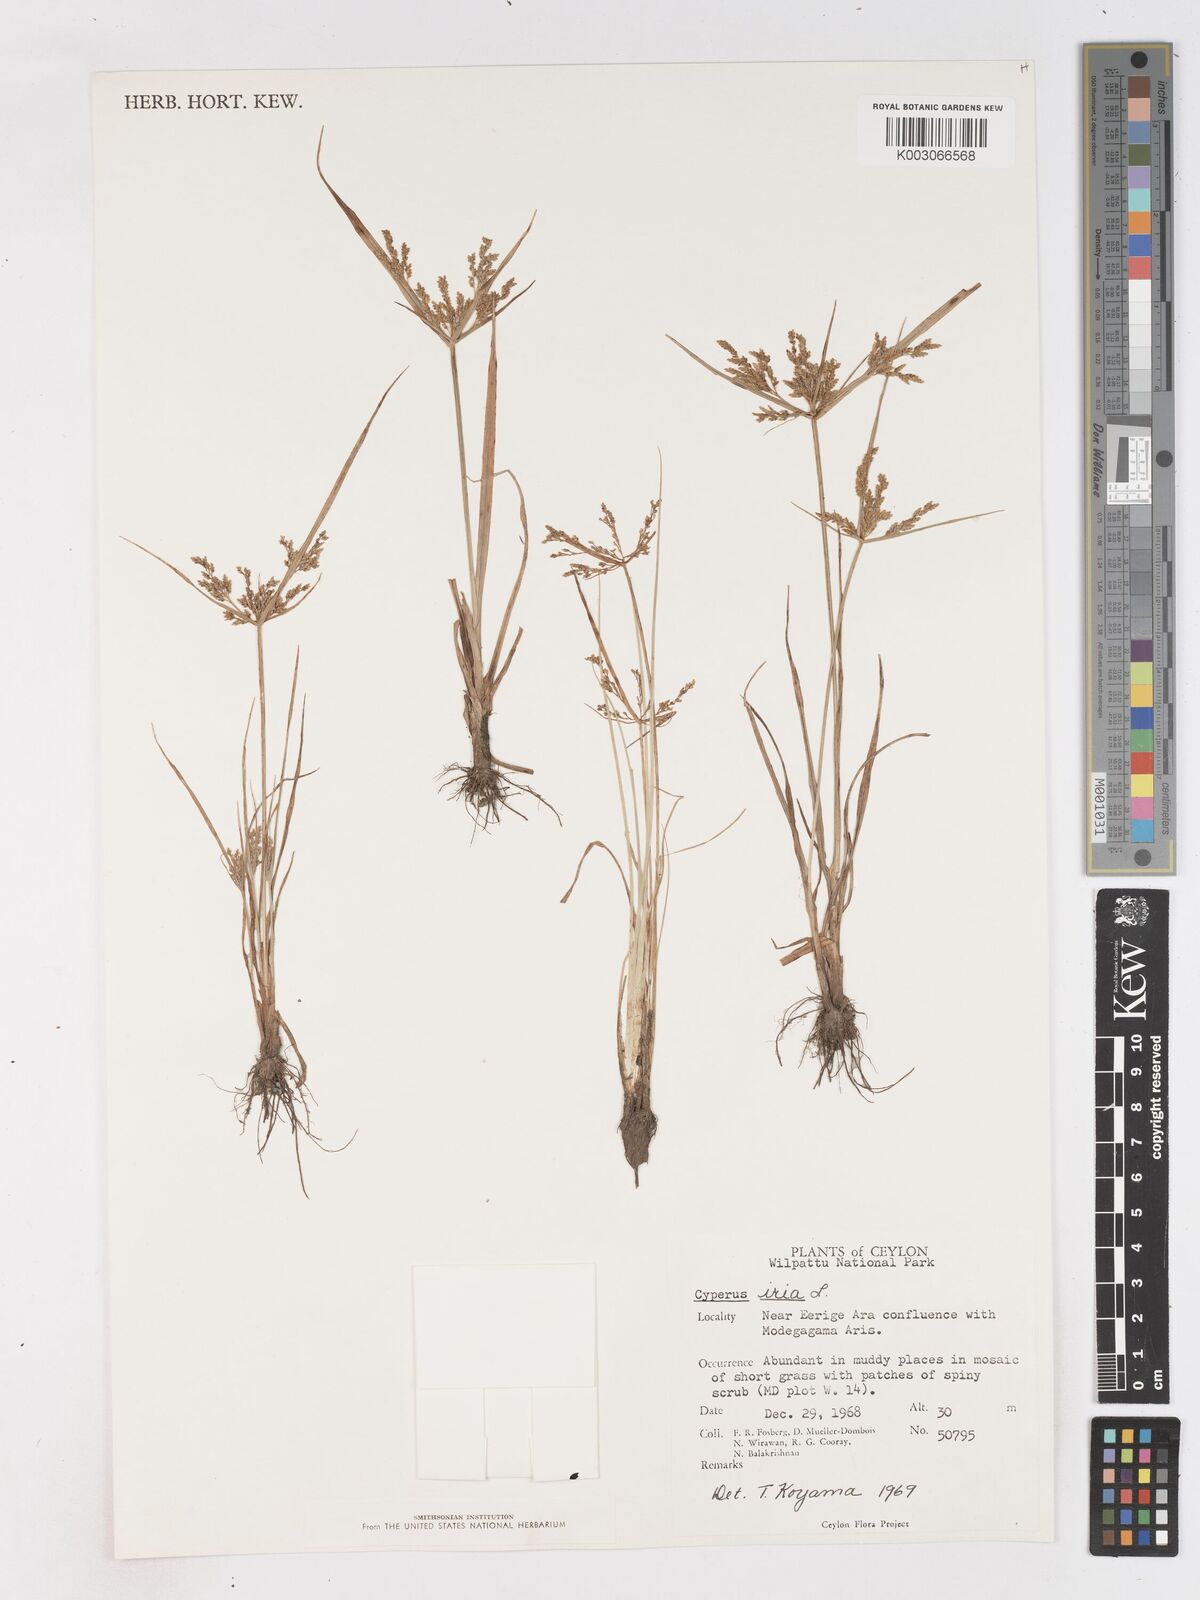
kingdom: Plantae
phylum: Tracheophyta
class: Liliopsida
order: Poales
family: Cyperaceae
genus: Cyperus
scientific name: Cyperus iria
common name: Ricefield flatsedge
